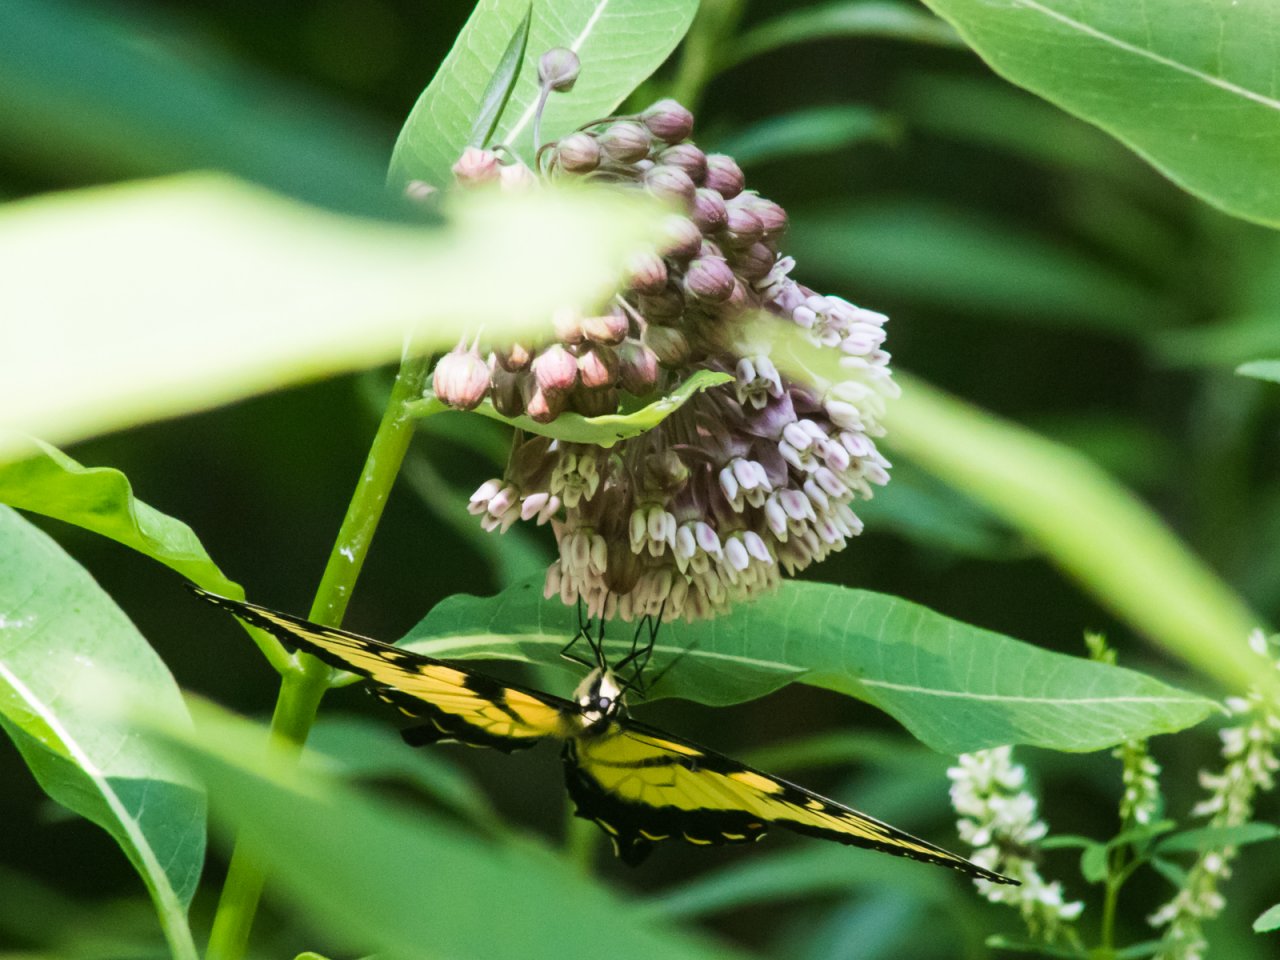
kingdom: Animalia
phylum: Arthropoda
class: Insecta
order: Lepidoptera
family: Papilionidae
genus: Pterourus
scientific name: Pterourus glaucus
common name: Eastern Tiger Swallowtail
